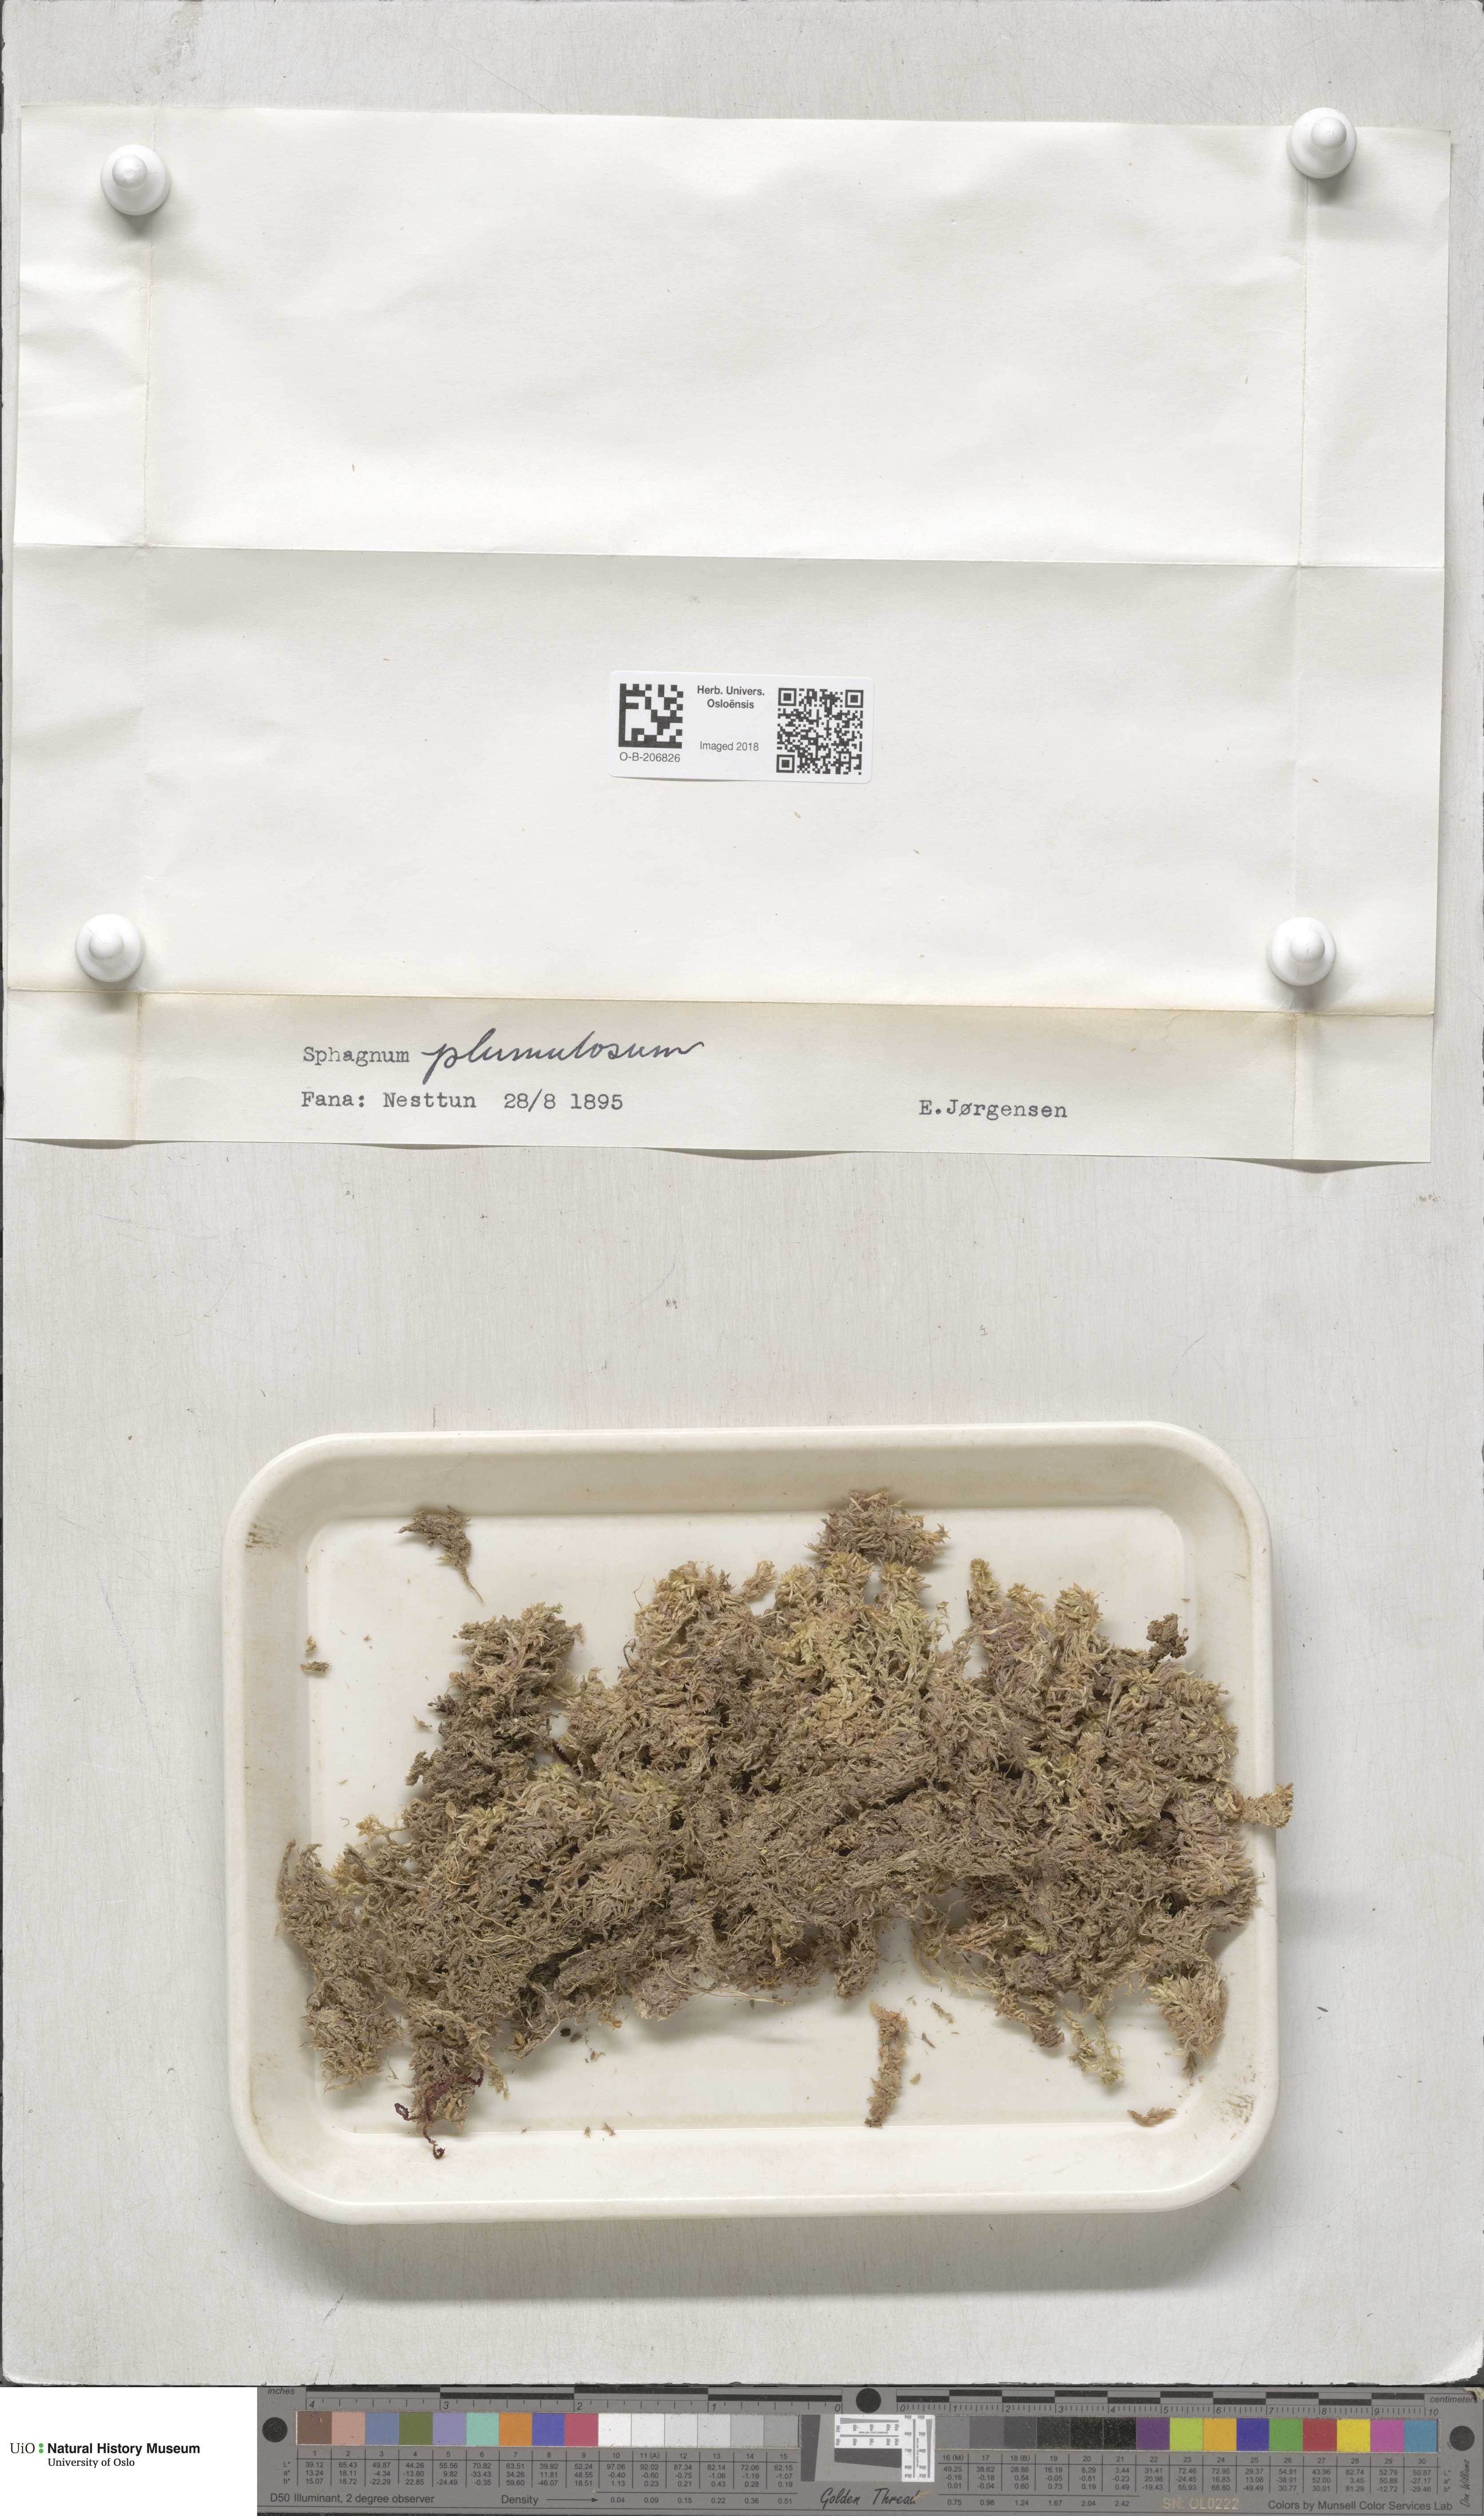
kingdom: Plantae
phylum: Bryophyta
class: Sphagnopsida
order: Sphagnales
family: Sphagnaceae
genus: Sphagnum
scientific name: Sphagnum subnitens
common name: Lustrous bog-moss
